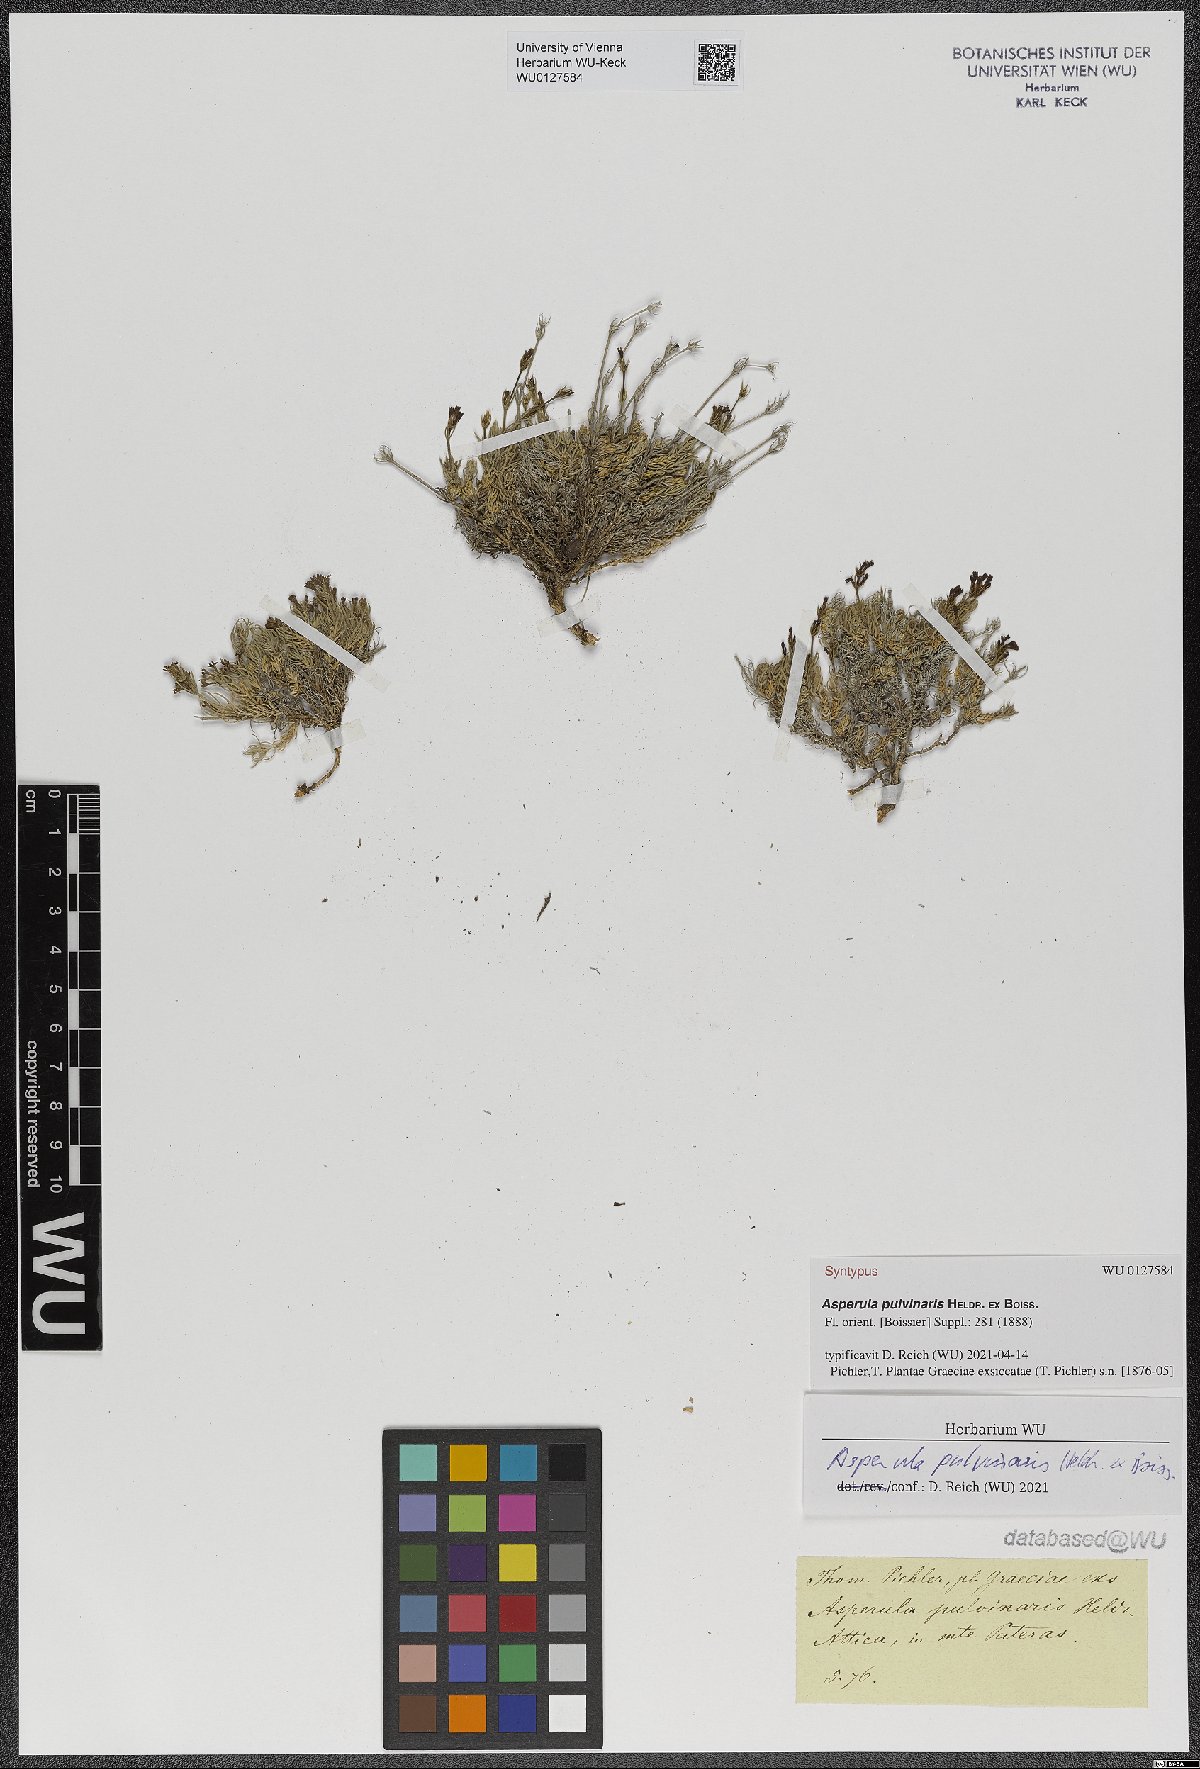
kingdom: Plantae
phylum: Tracheophyta
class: Magnoliopsida
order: Gentianales
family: Rubiaceae
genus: Cynanchica
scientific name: Cynanchica pulvinaris
